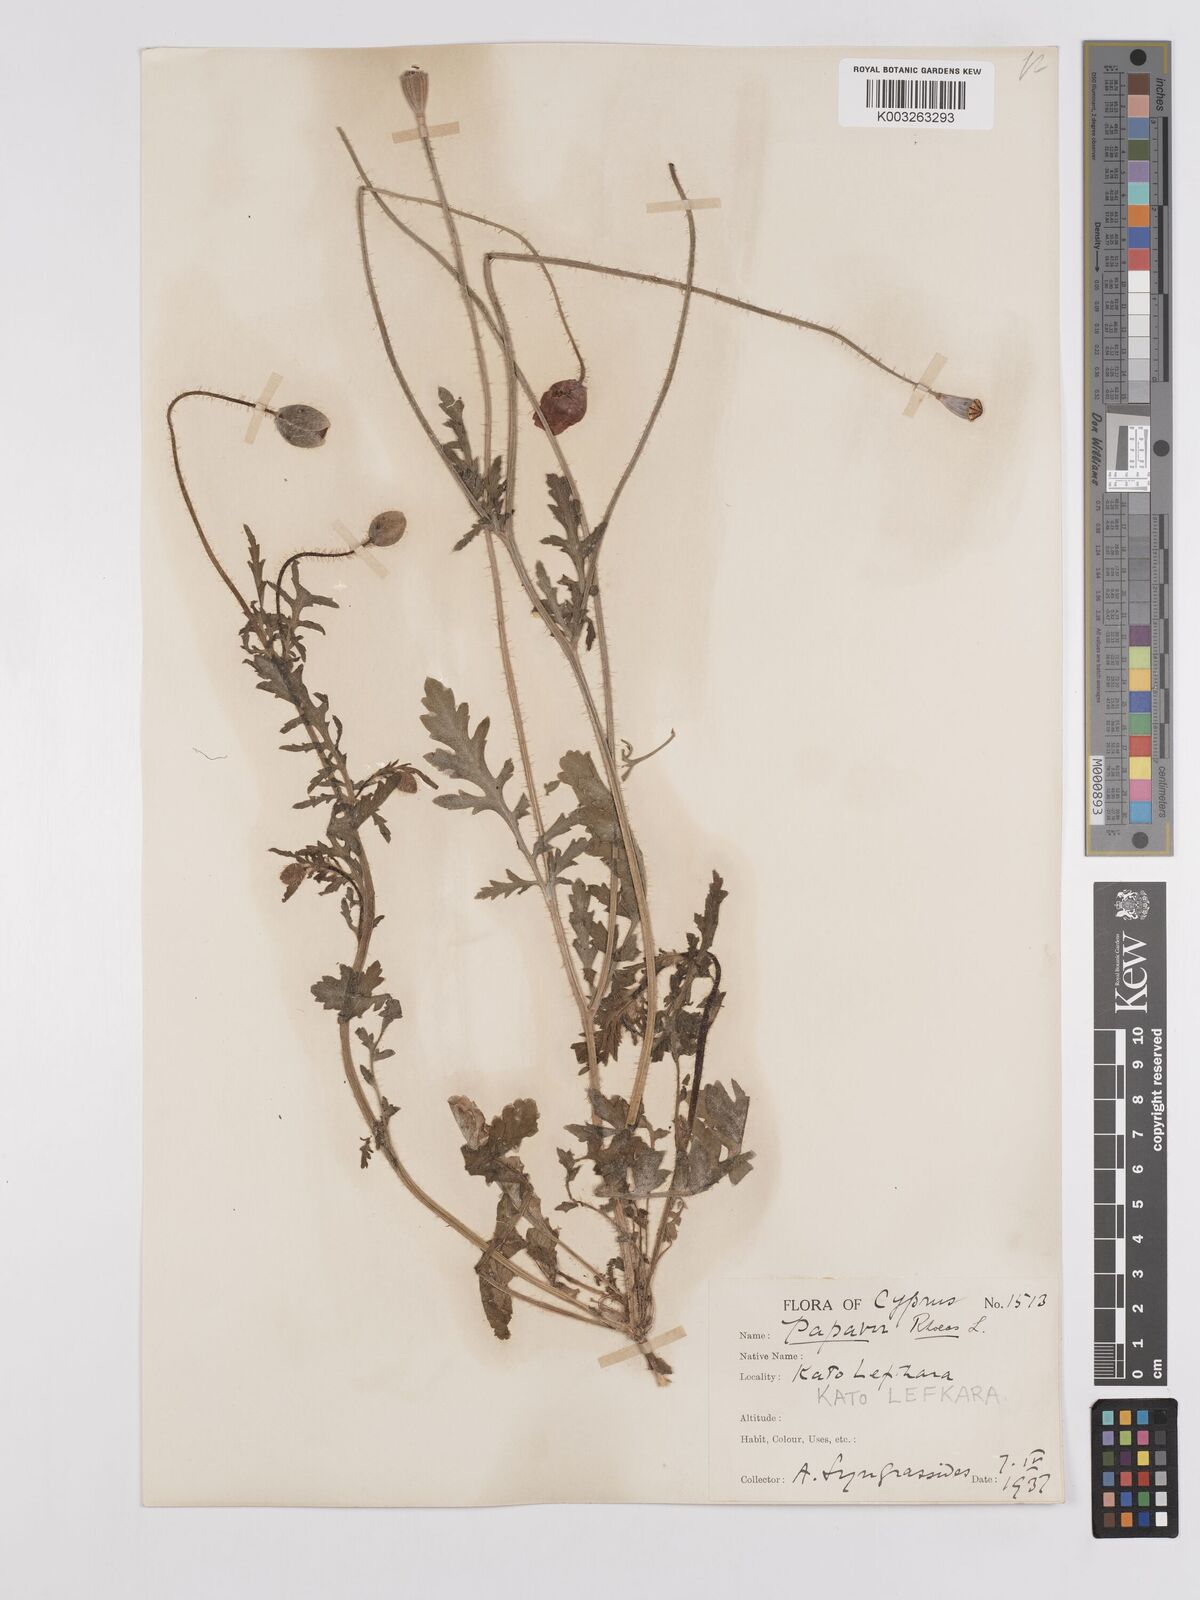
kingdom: Plantae
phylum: Tracheophyta
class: Magnoliopsida
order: Ranunculales
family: Papaveraceae
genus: Papaver
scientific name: Papaver rhoeas
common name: Corn poppy
